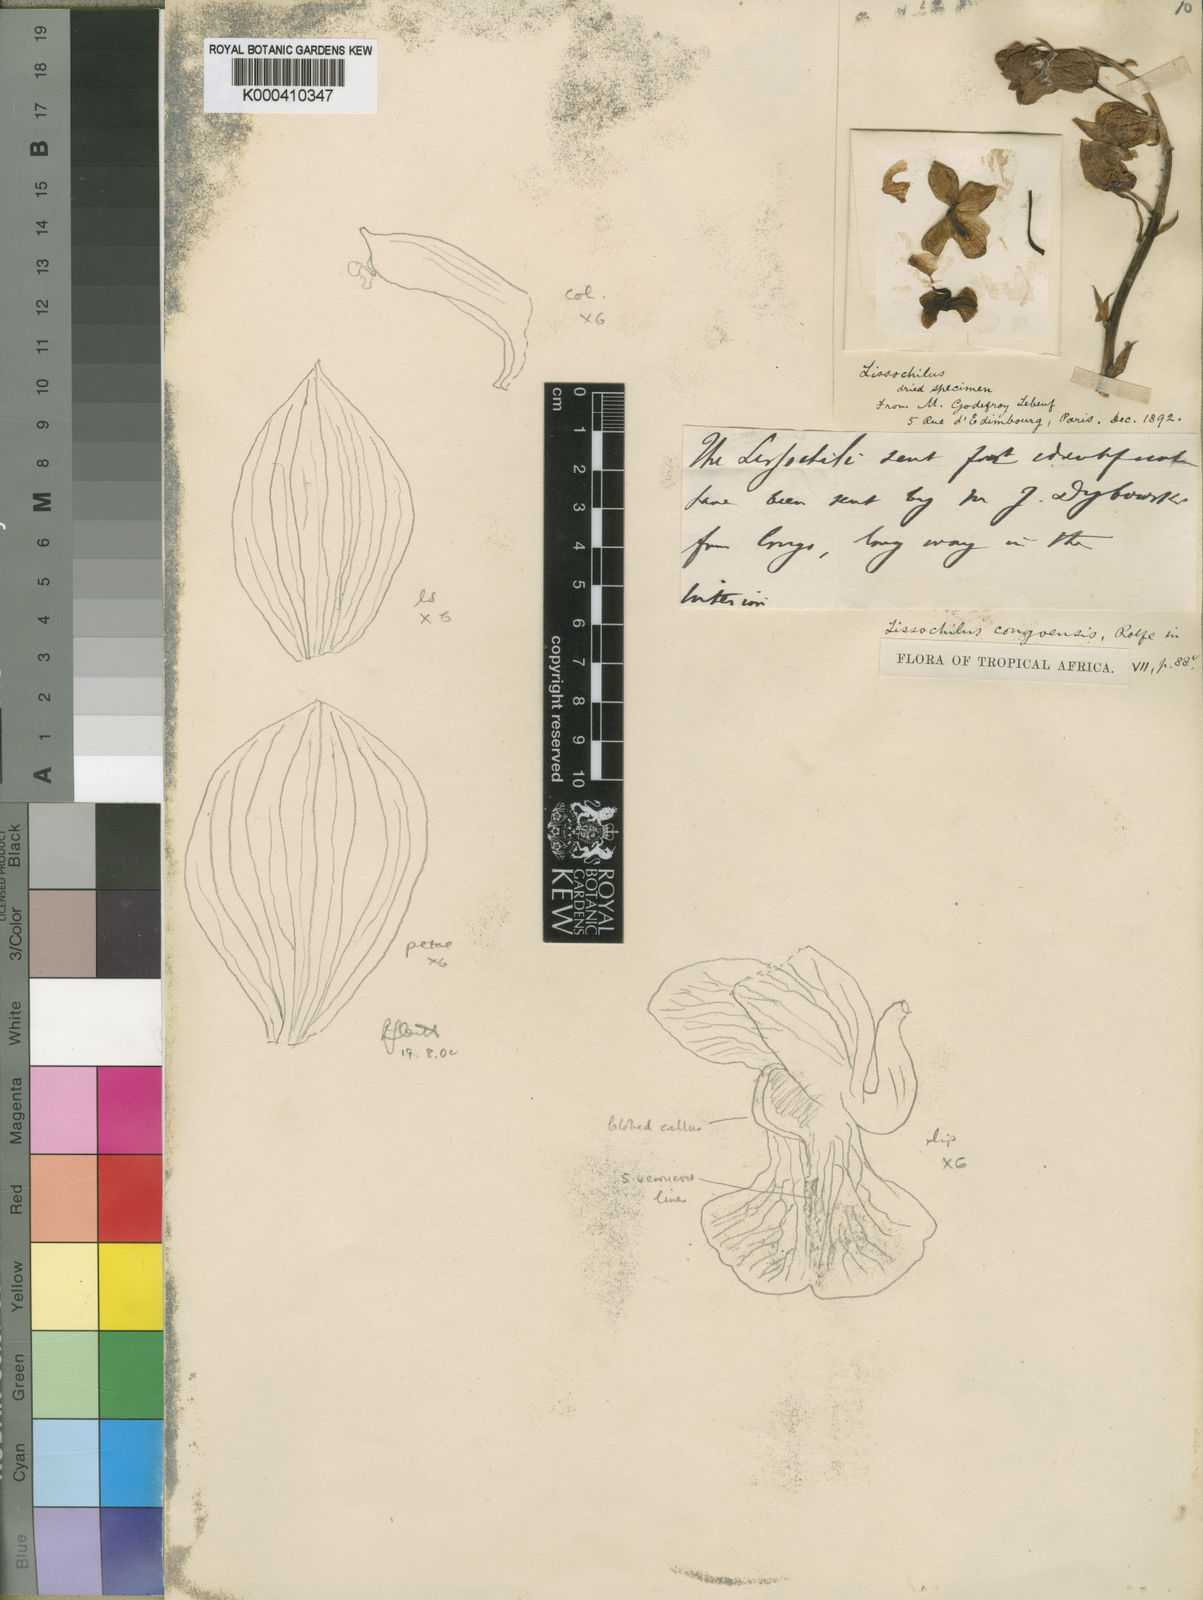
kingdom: Plantae
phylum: Tracheophyta
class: Liliopsida
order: Asparagales
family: Orchidaceae
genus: Eulophia
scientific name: Eulophia parilamellata
